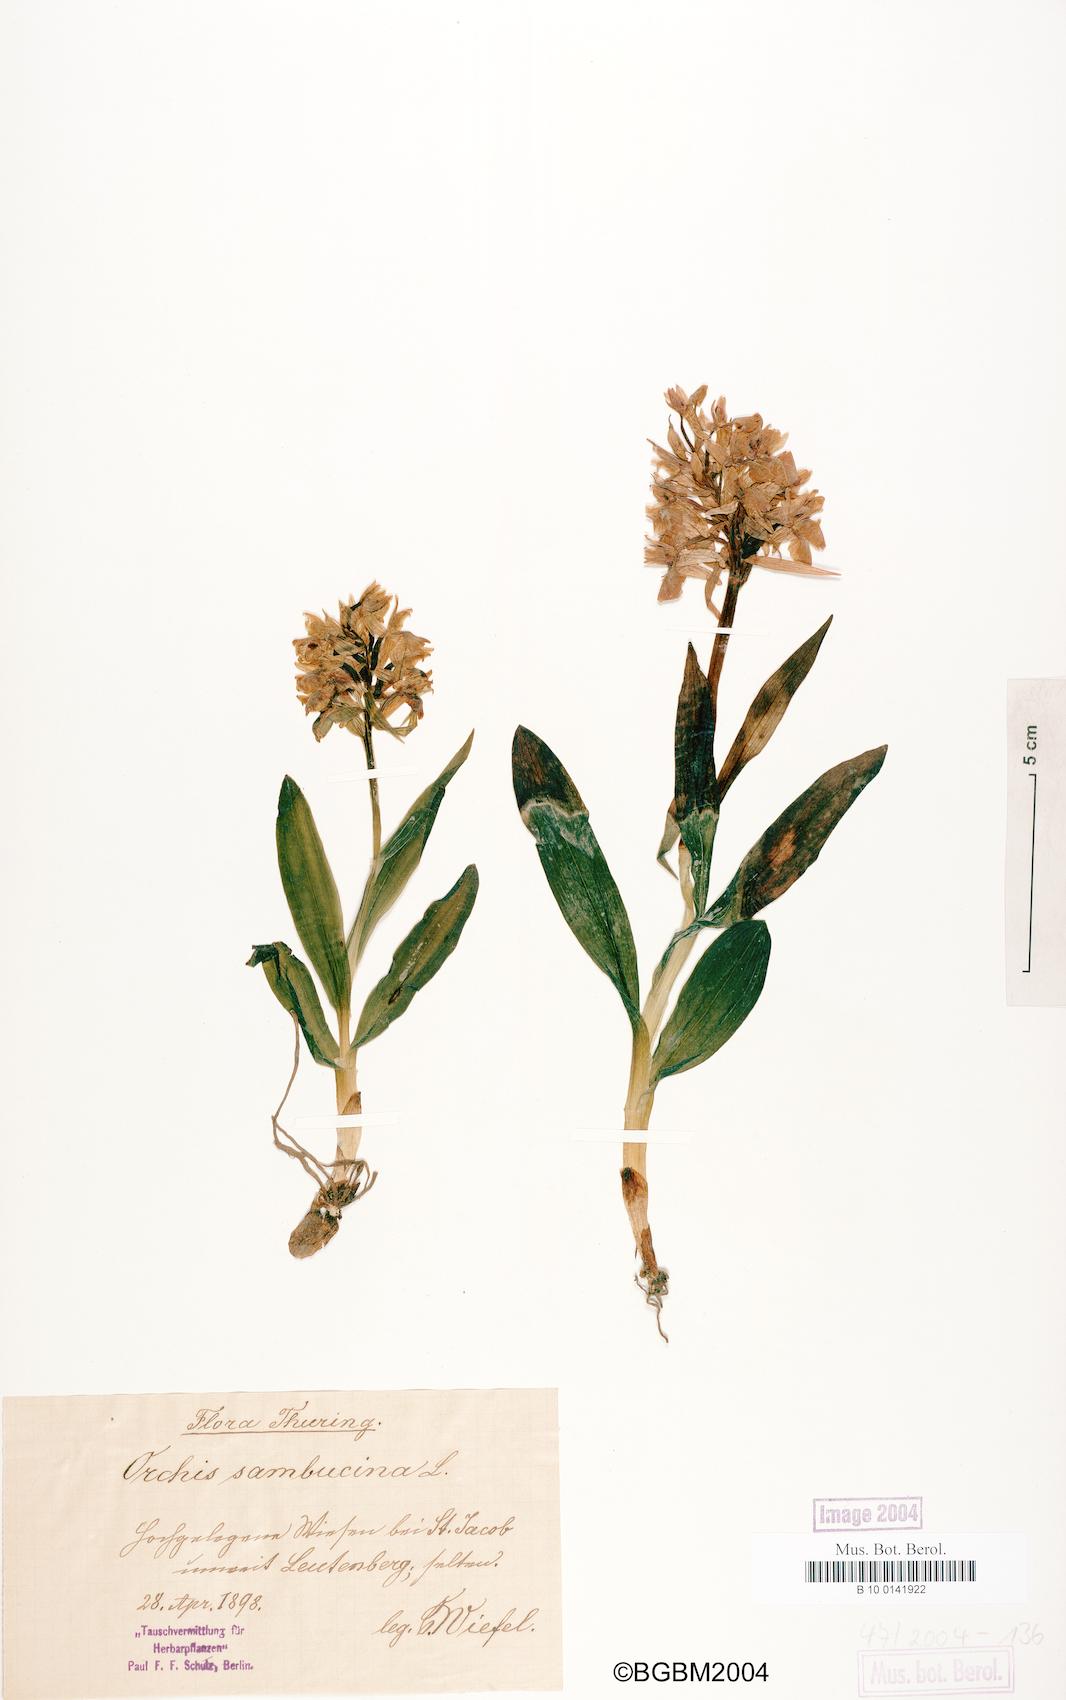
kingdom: Plantae
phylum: Tracheophyta
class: Liliopsida
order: Asparagales
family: Orchidaceae
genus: Dactylorhiza
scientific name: Dactylorhiza sambucina
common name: Elder-flowered orchid
